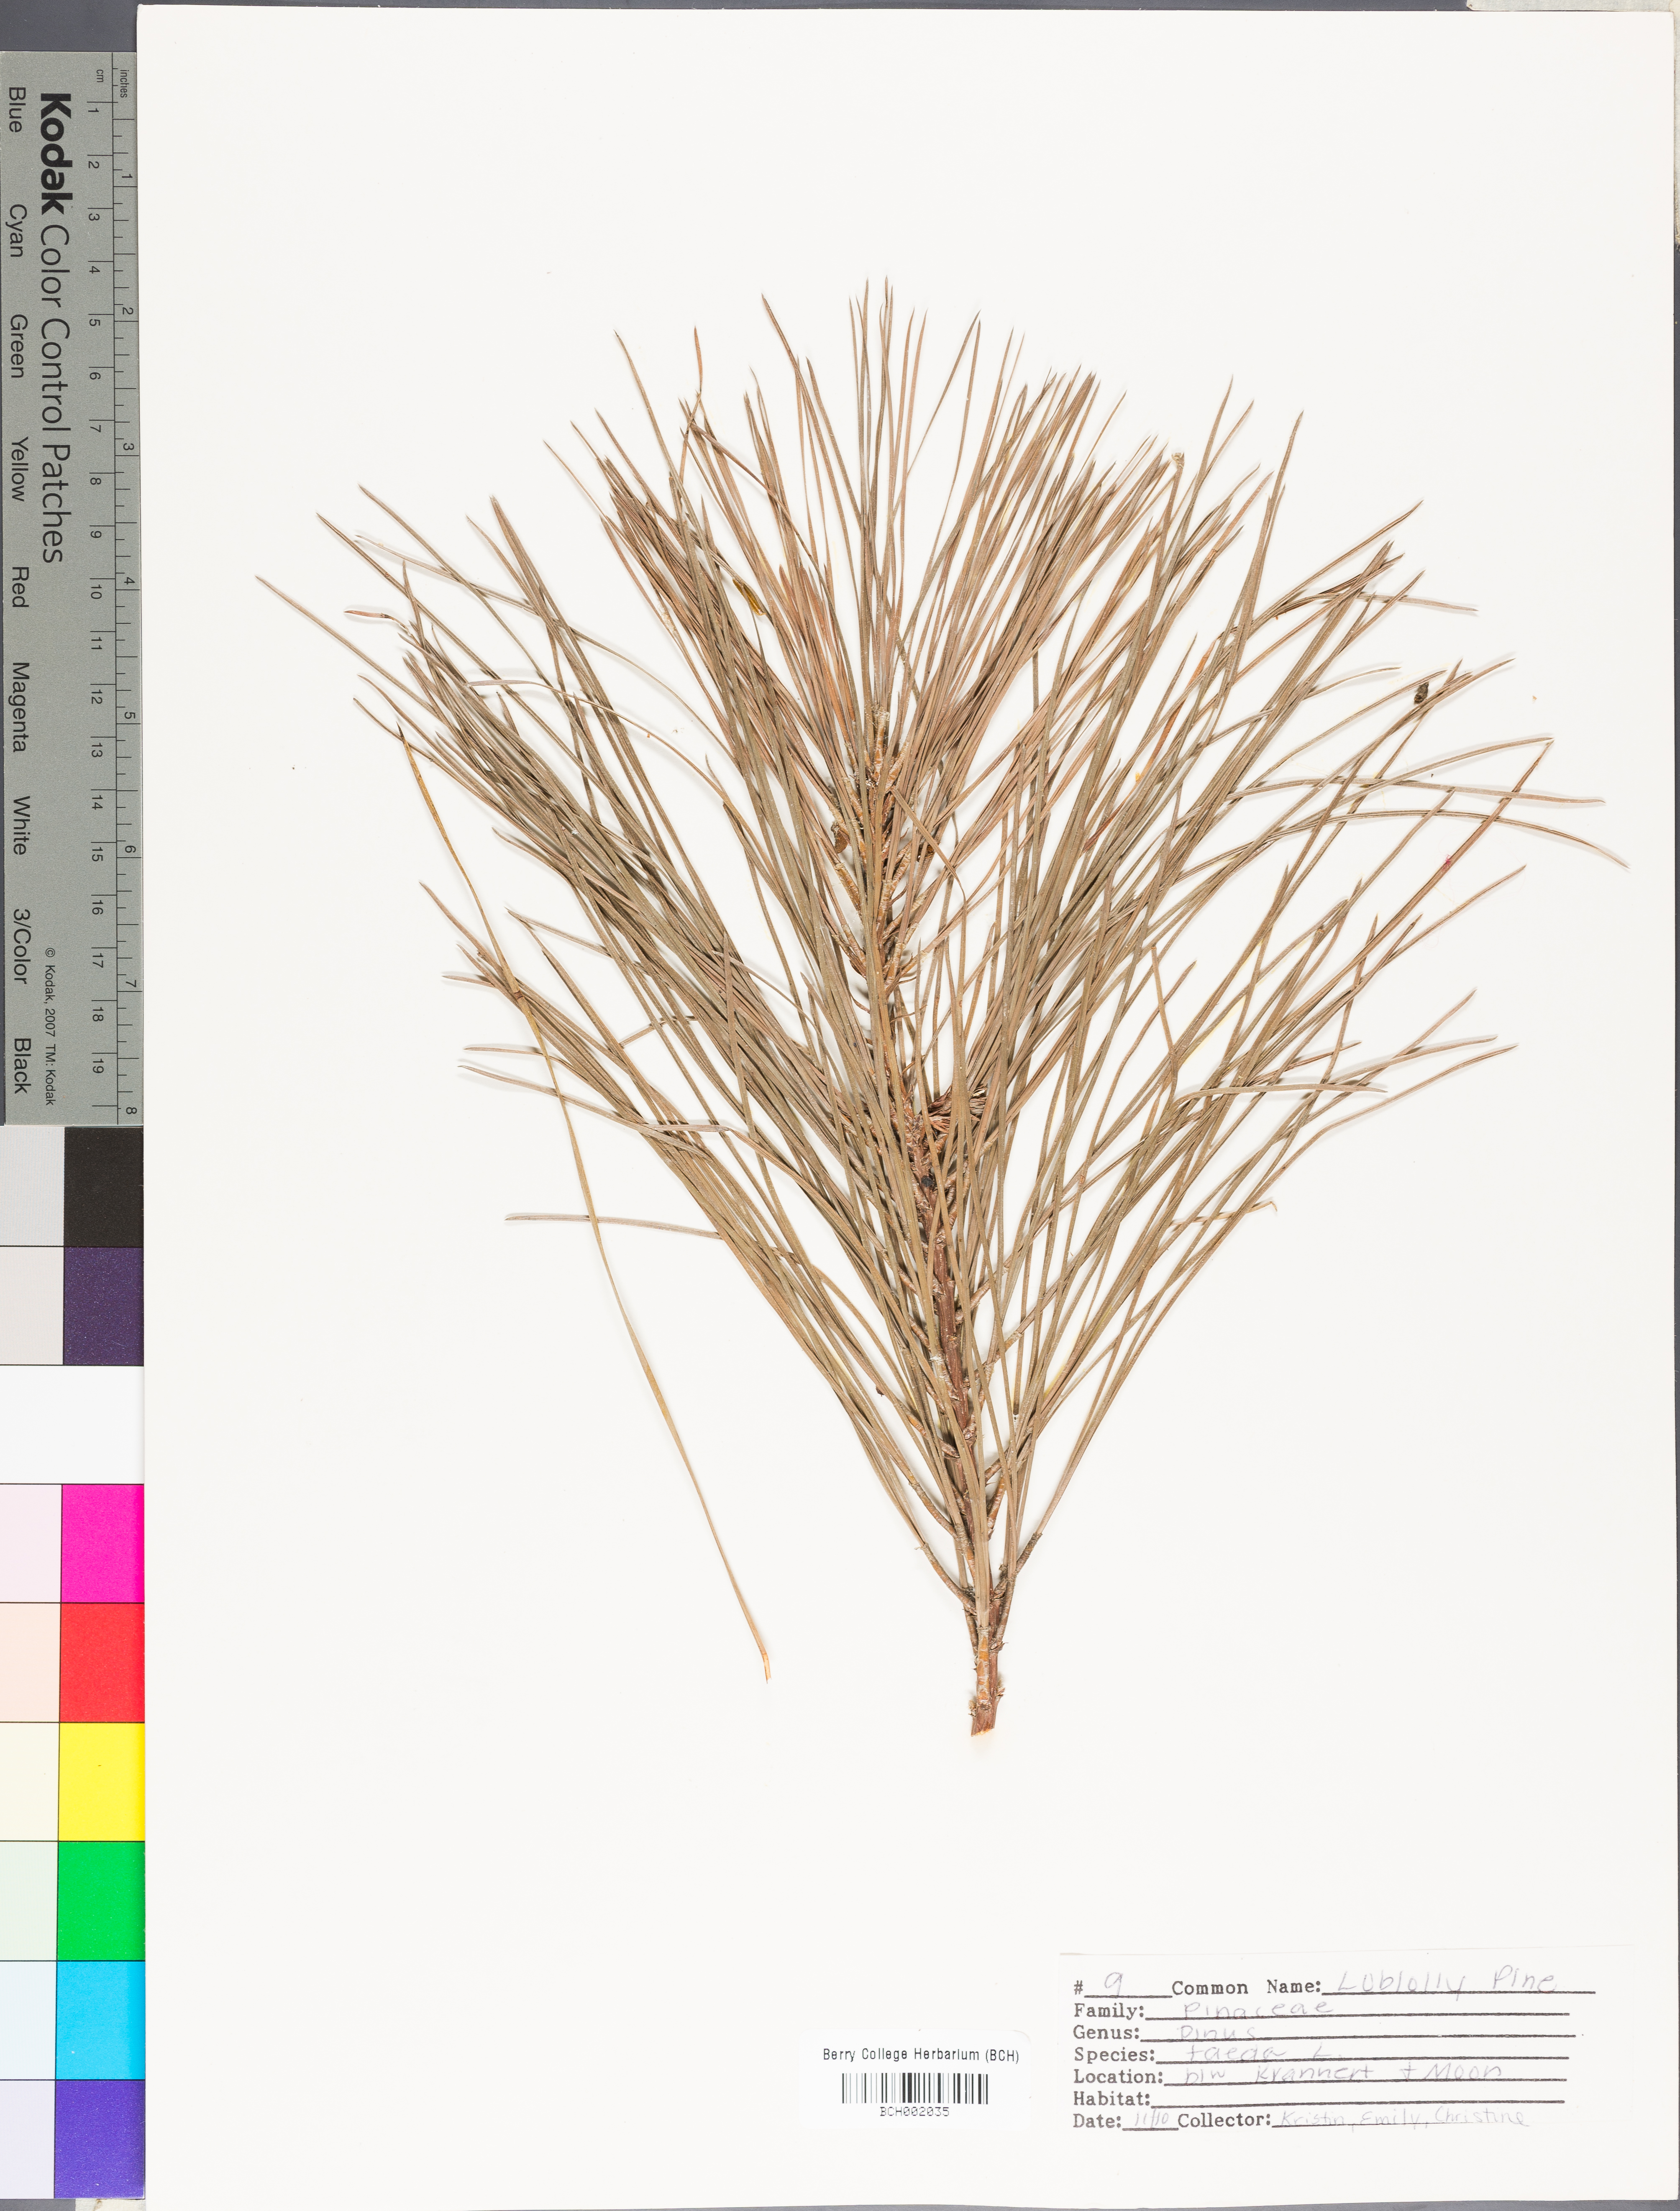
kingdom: Plantae
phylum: Tracheophyta
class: Pinopsida
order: Pinales
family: Pinaceae
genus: Pinus
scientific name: Pinus taeda
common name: Loblolly pine
